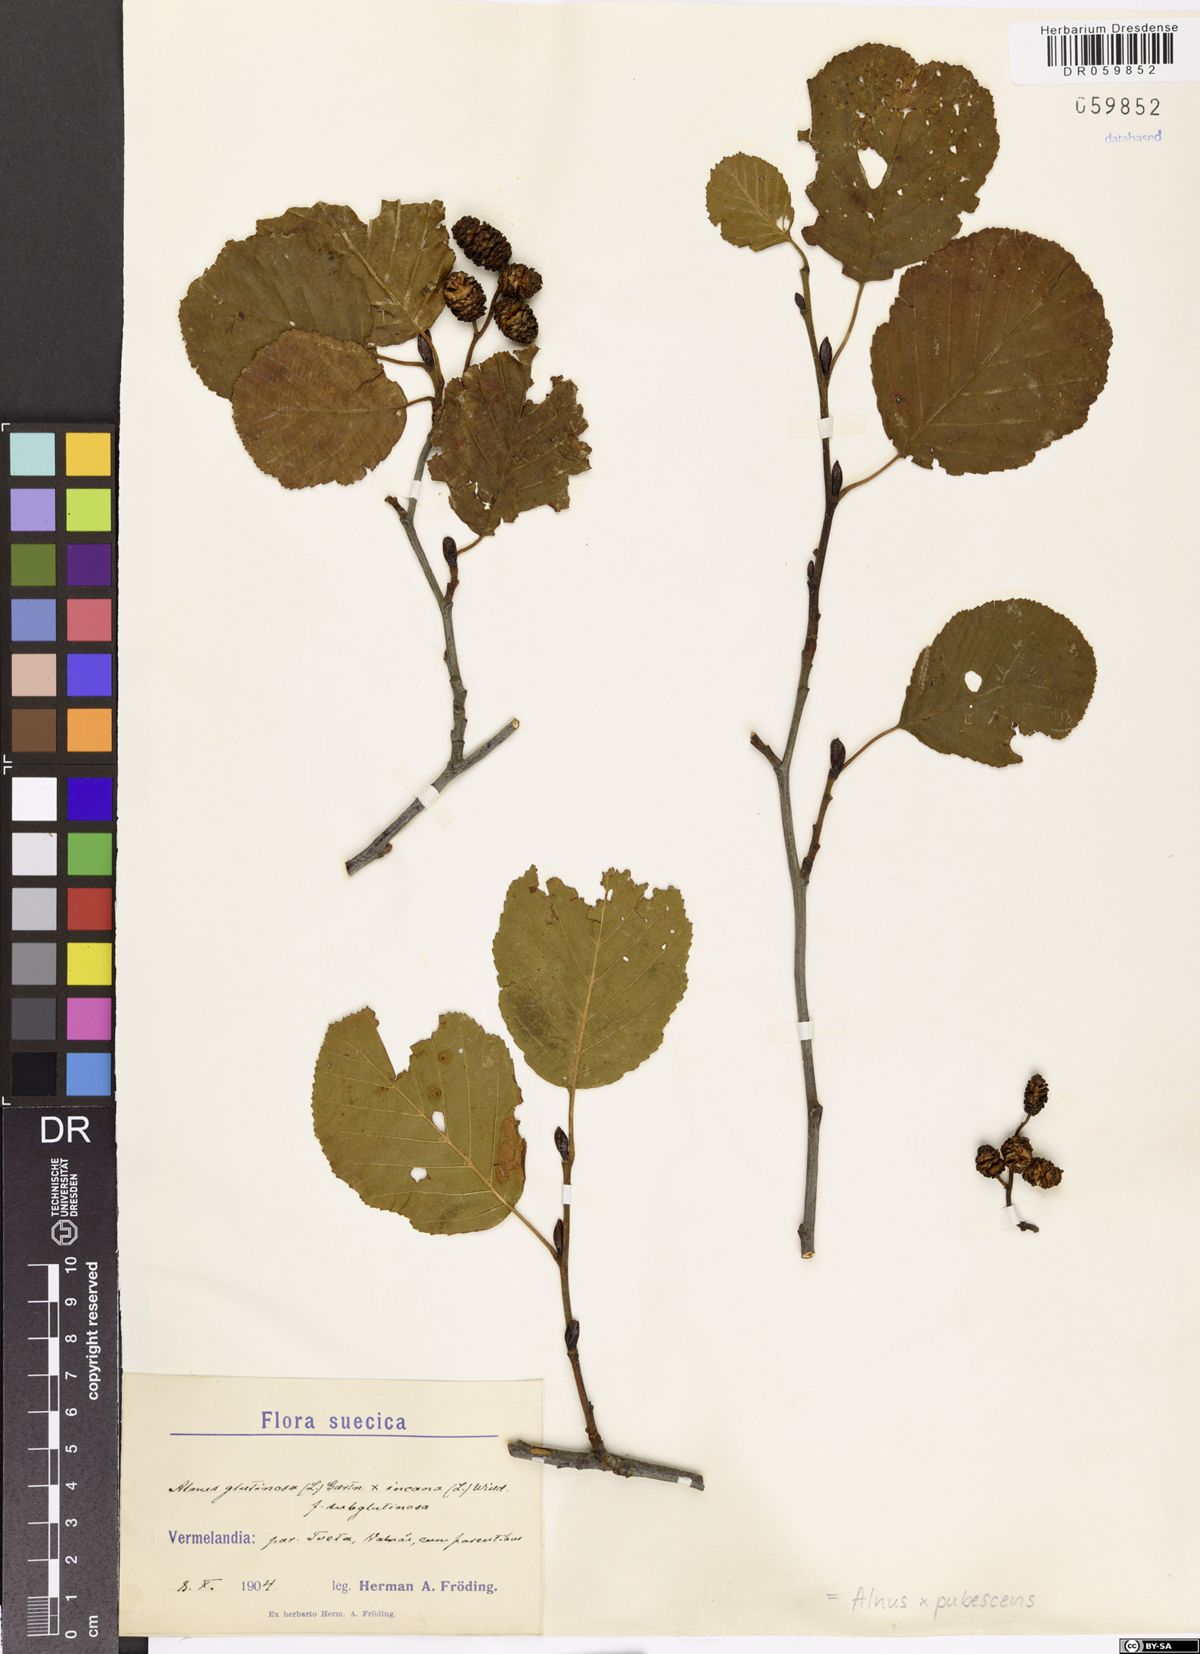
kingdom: Plantae
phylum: Tracheophyta
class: Magnoliopsida
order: Fagales
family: Betulaceae
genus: Alnus
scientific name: Alnus pubescens
